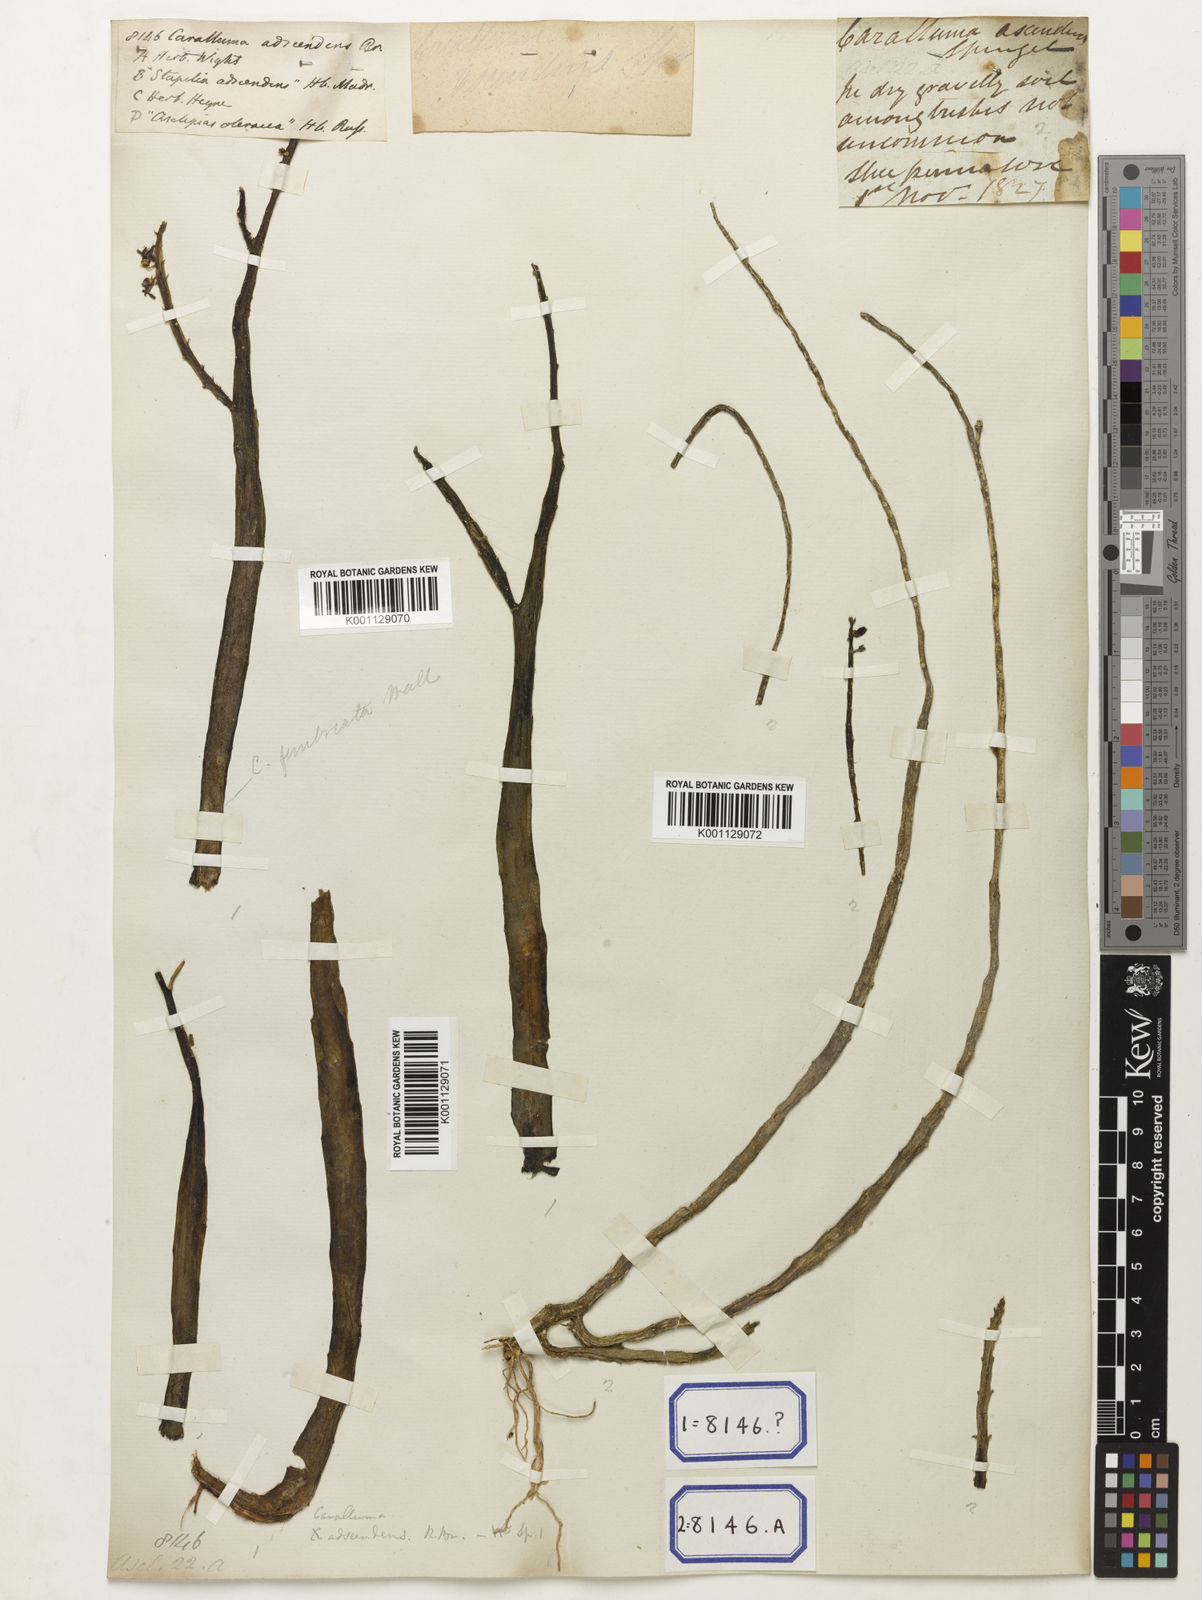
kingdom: Plantae
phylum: Tracheophyta
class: Magnoliopsida
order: Gentianales
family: Apocynaceae
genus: Caralluma
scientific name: Caralluma
